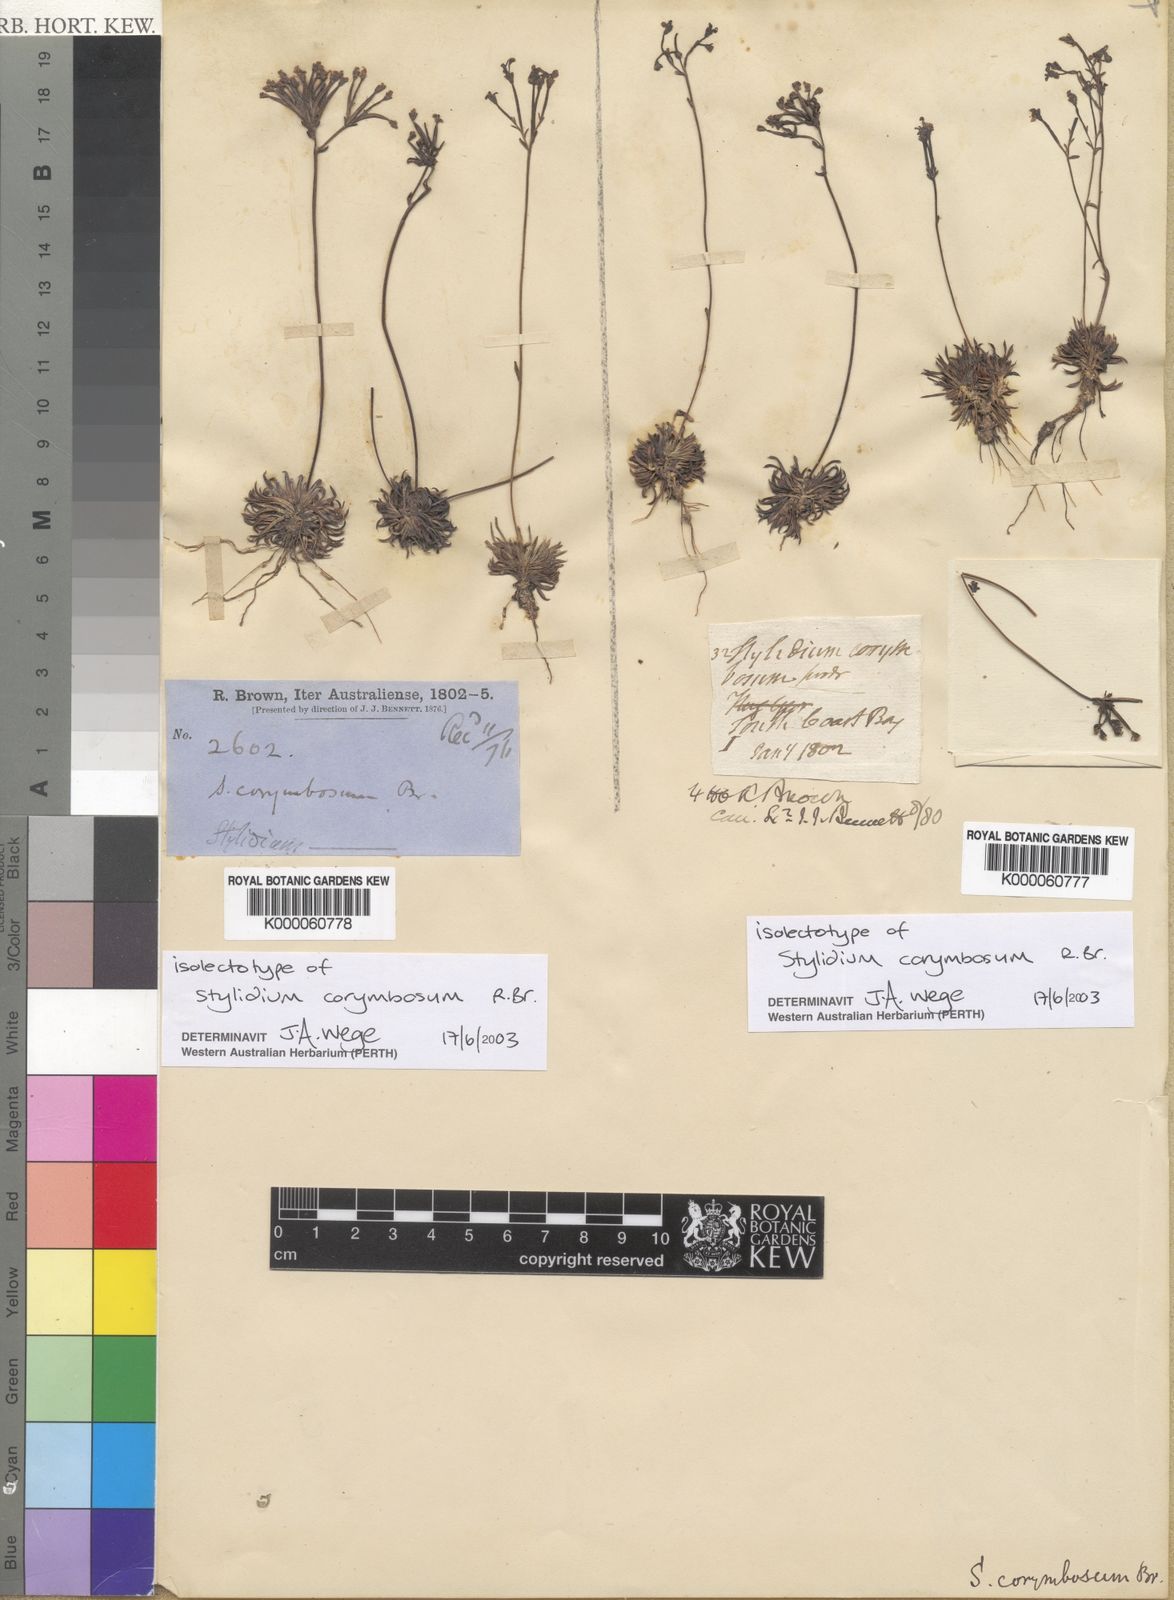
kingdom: Plantae
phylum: Tracheophyta
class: Magnoliopsida
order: Asterales
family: Stylidiaceae
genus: Stylidium
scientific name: Stylidium caespitosum
